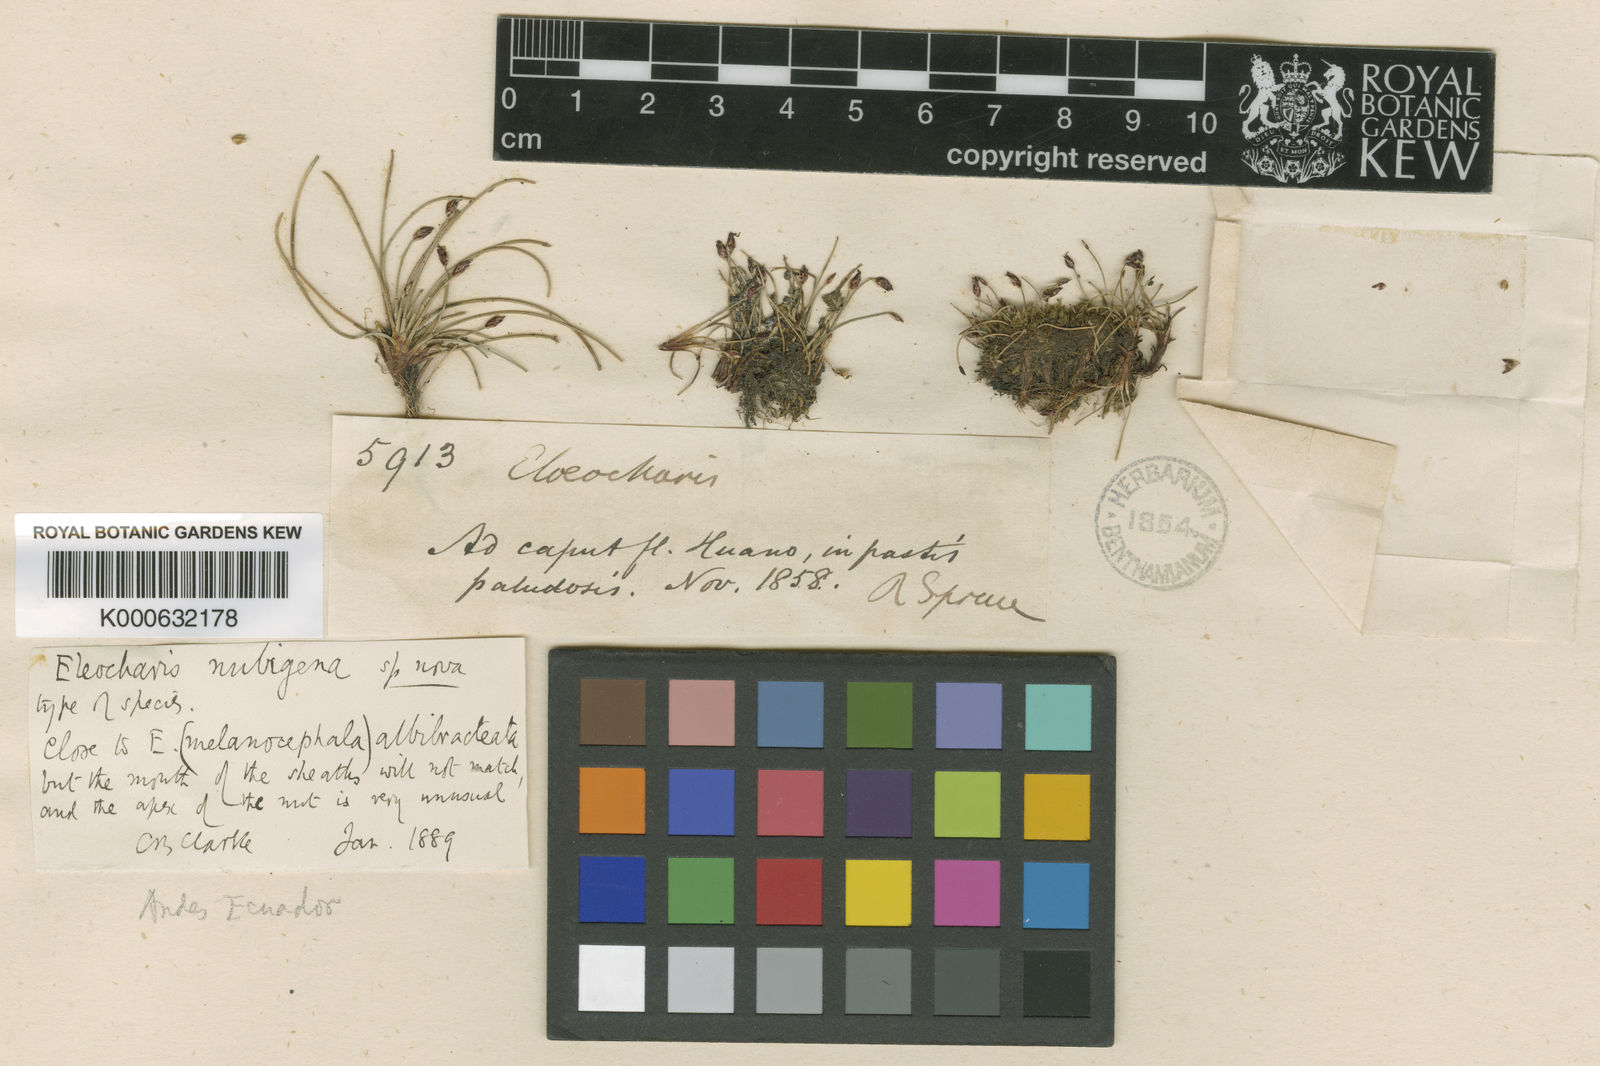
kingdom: Plantae
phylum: Tracheophyta
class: Liliopsida
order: Poales
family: Cyperaceae
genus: Eleocharis
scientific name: Eleocharis albibracteata
